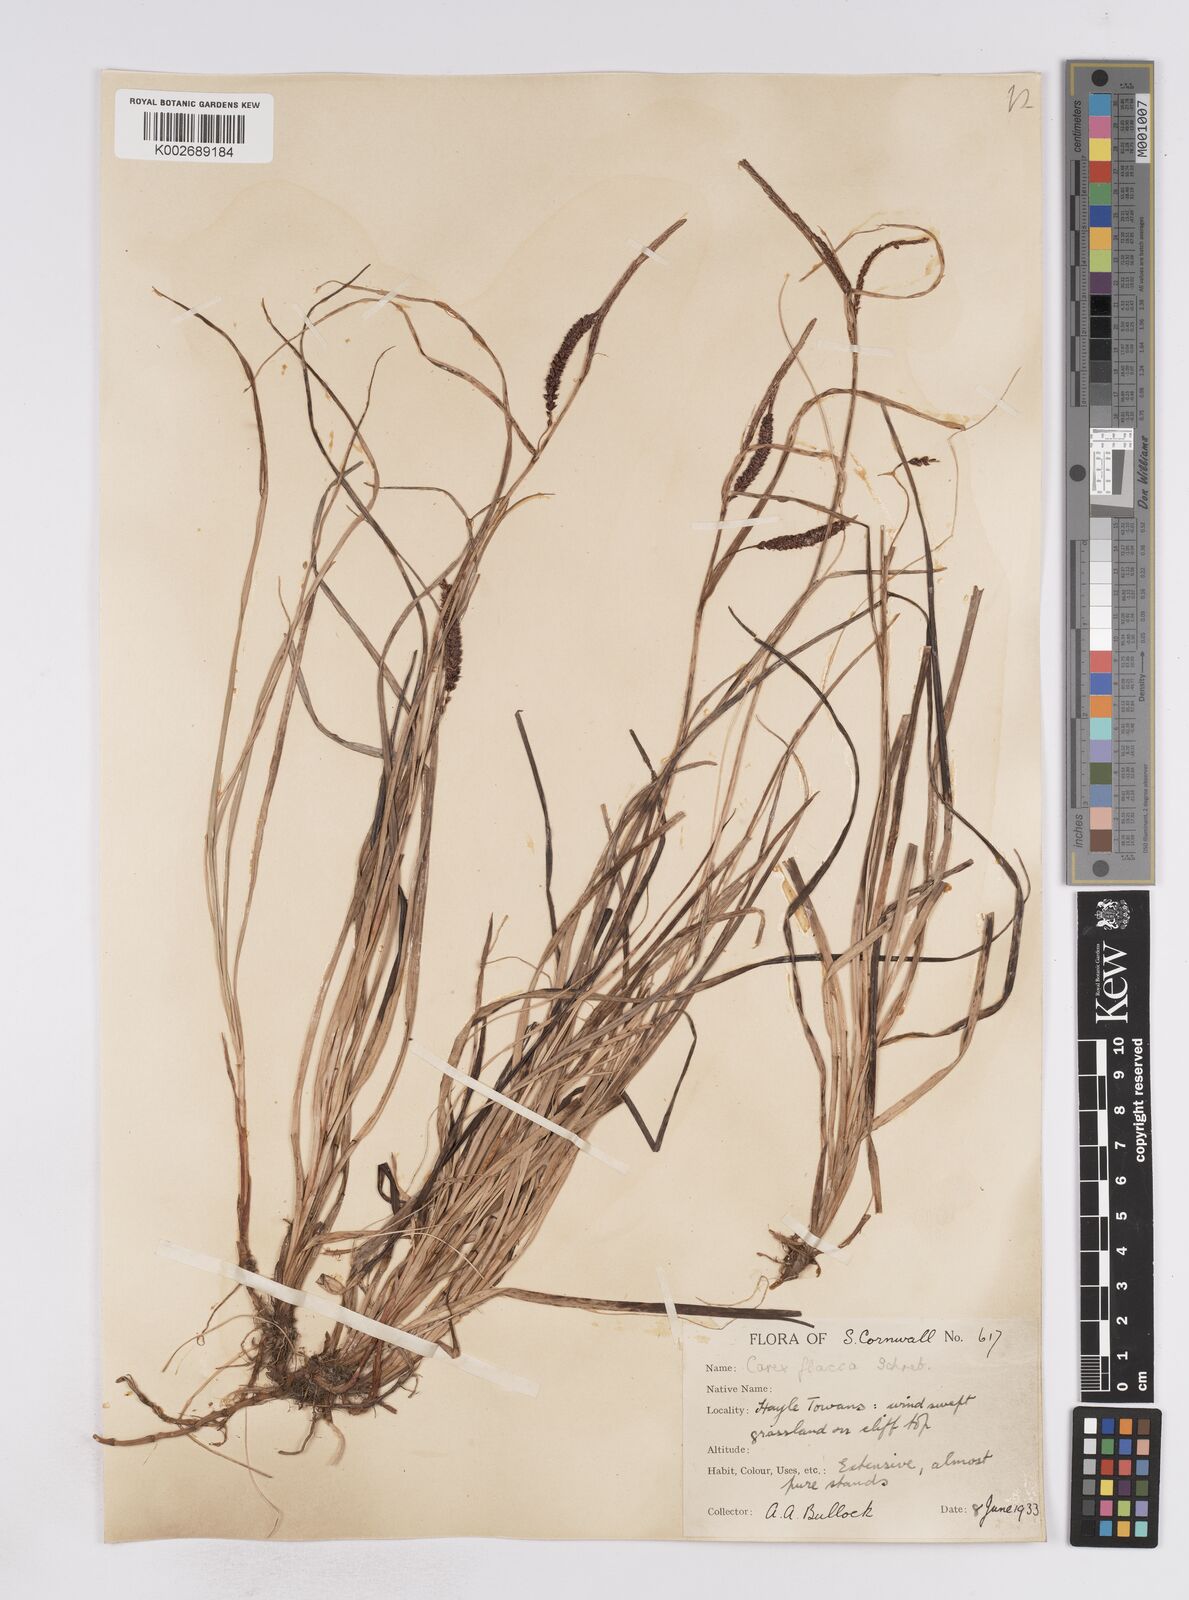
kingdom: Plantae
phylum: Tracheophyta
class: Liliopsida
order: Poales
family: Cyperaceae
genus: Carex
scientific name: Carex flacca
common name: Glaucous sedge
